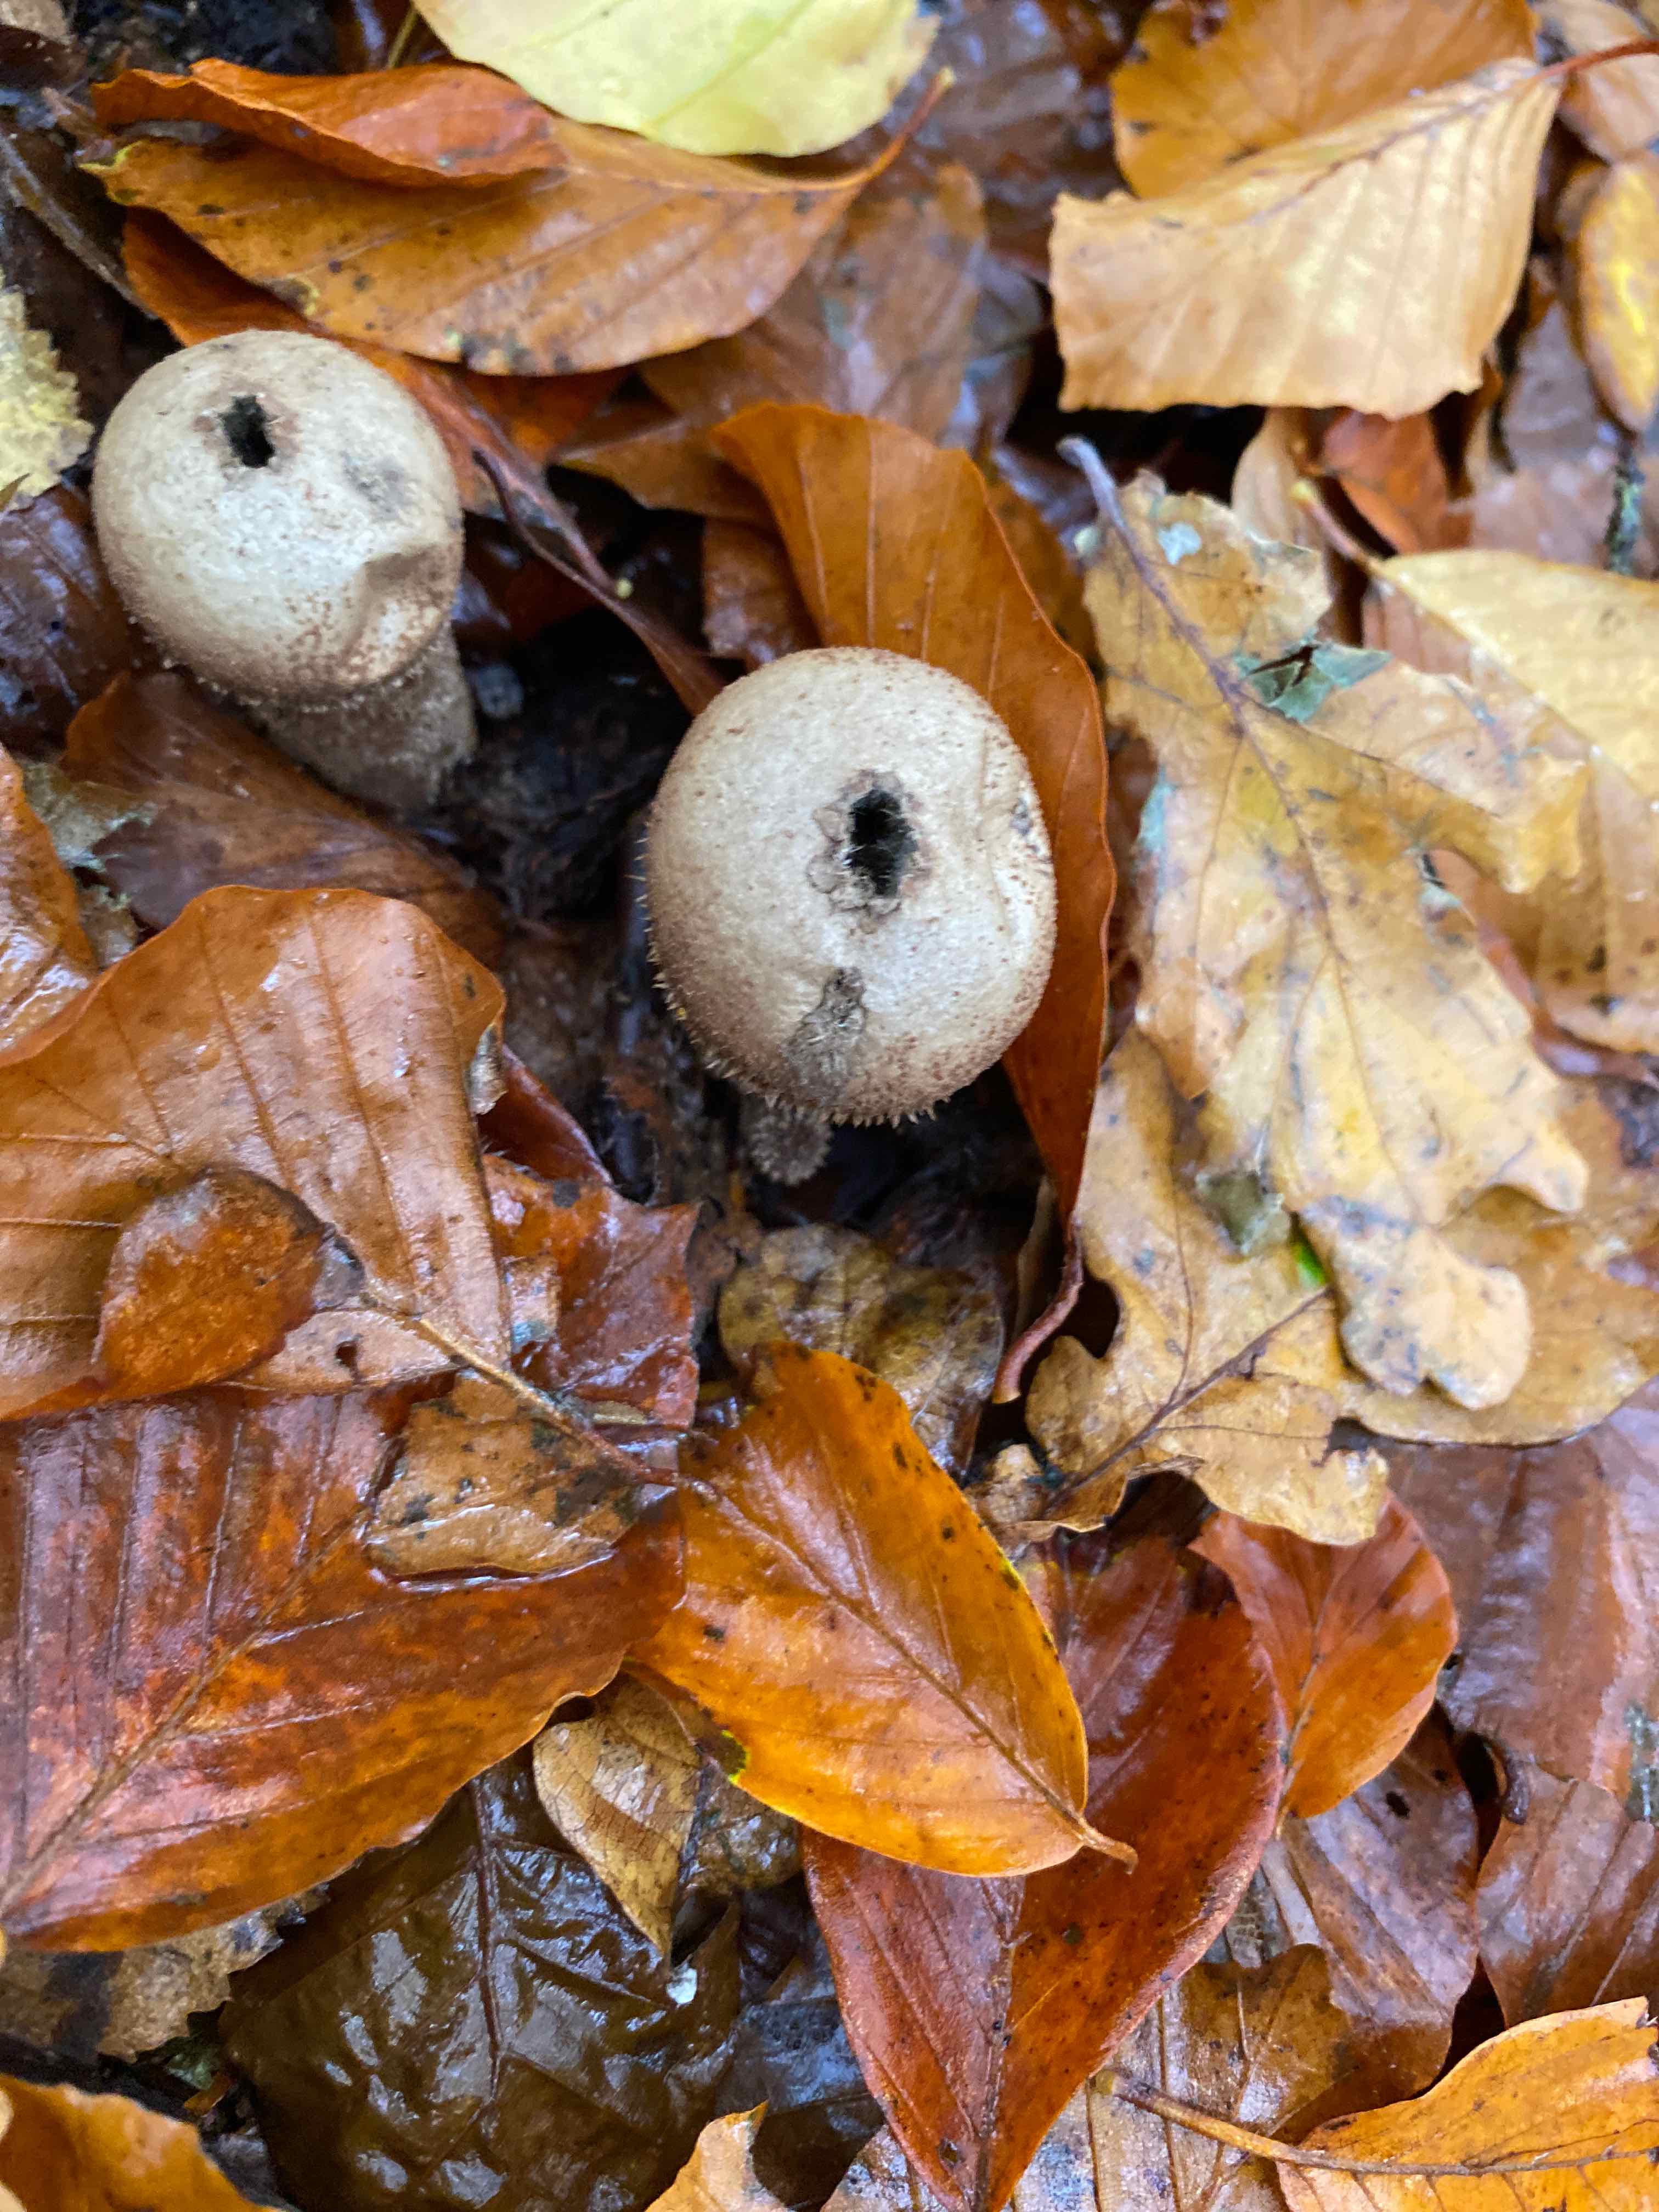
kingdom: Fungi
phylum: Basidiomycota
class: Agaricomycetes
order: Agaricales
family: Agaricaceae
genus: Lycoperdon
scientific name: Lycoperdon
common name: støvbold
